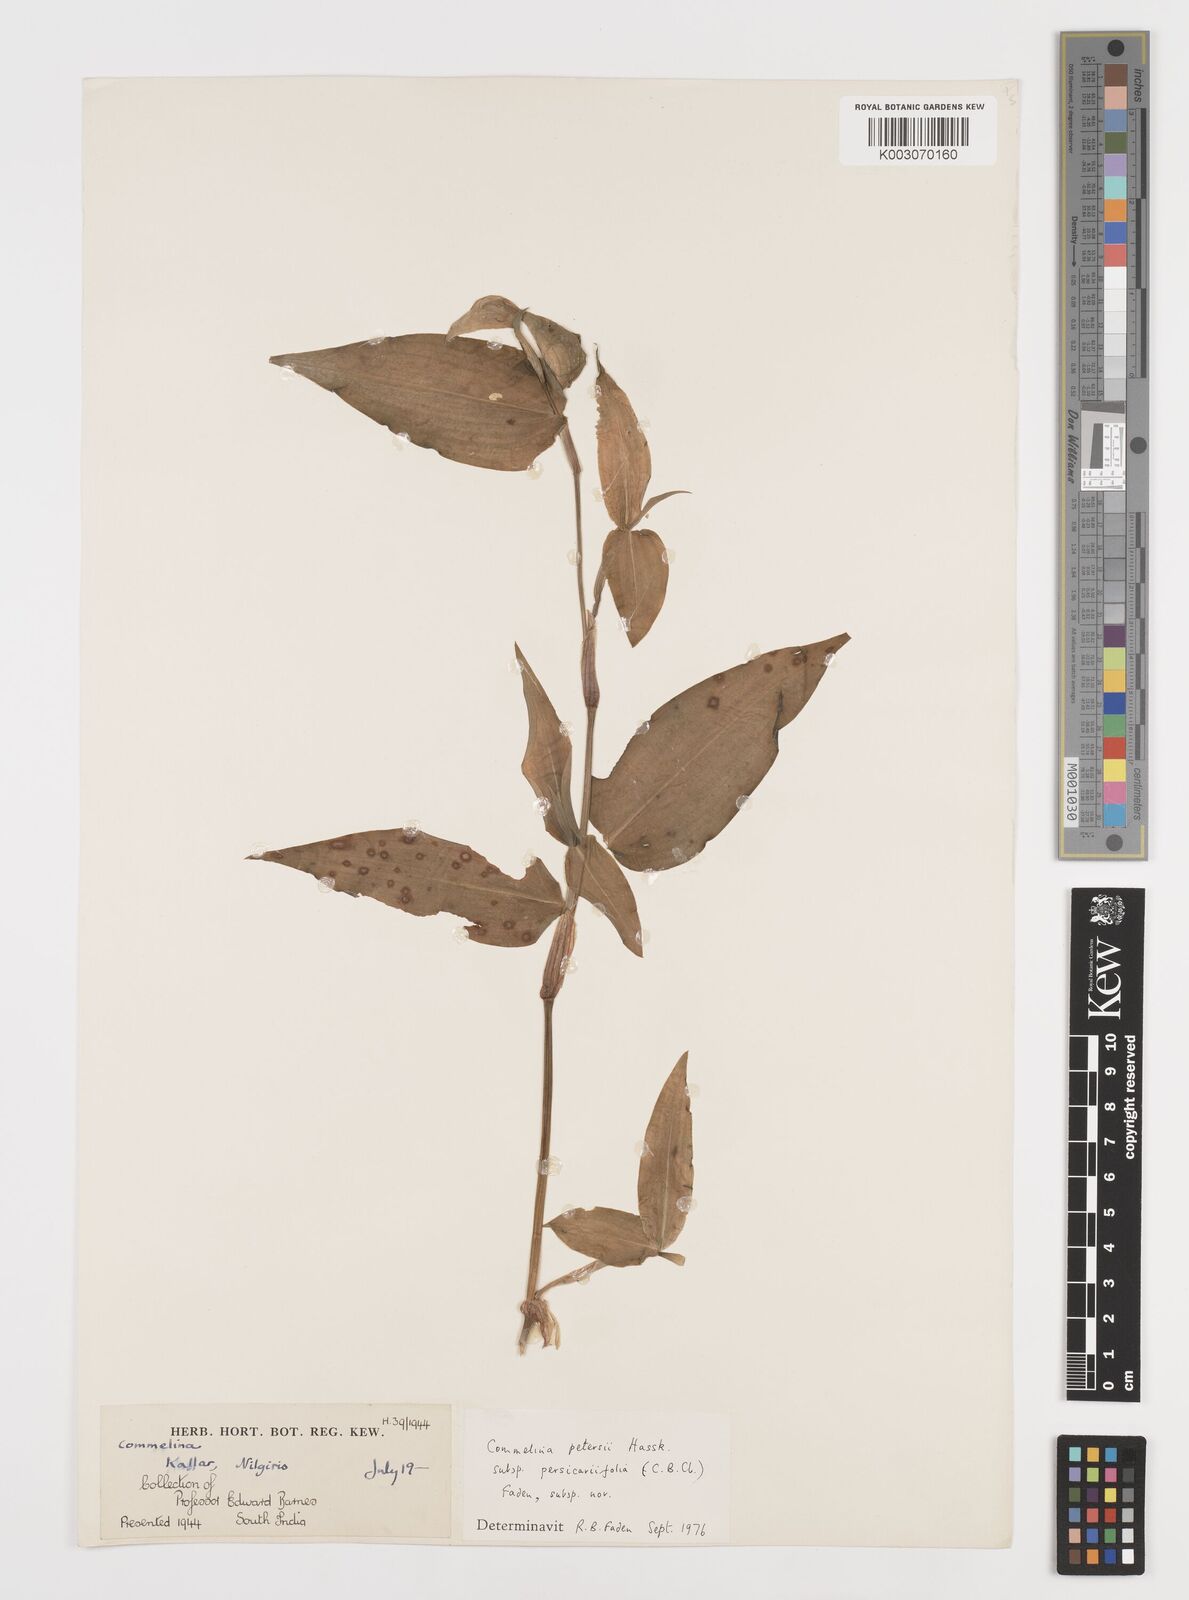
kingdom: Plantae
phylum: Tracheophyta
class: Liliopsida
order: Commelinales
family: Commelinaceae
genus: Commelina
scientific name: Commelina petersii
